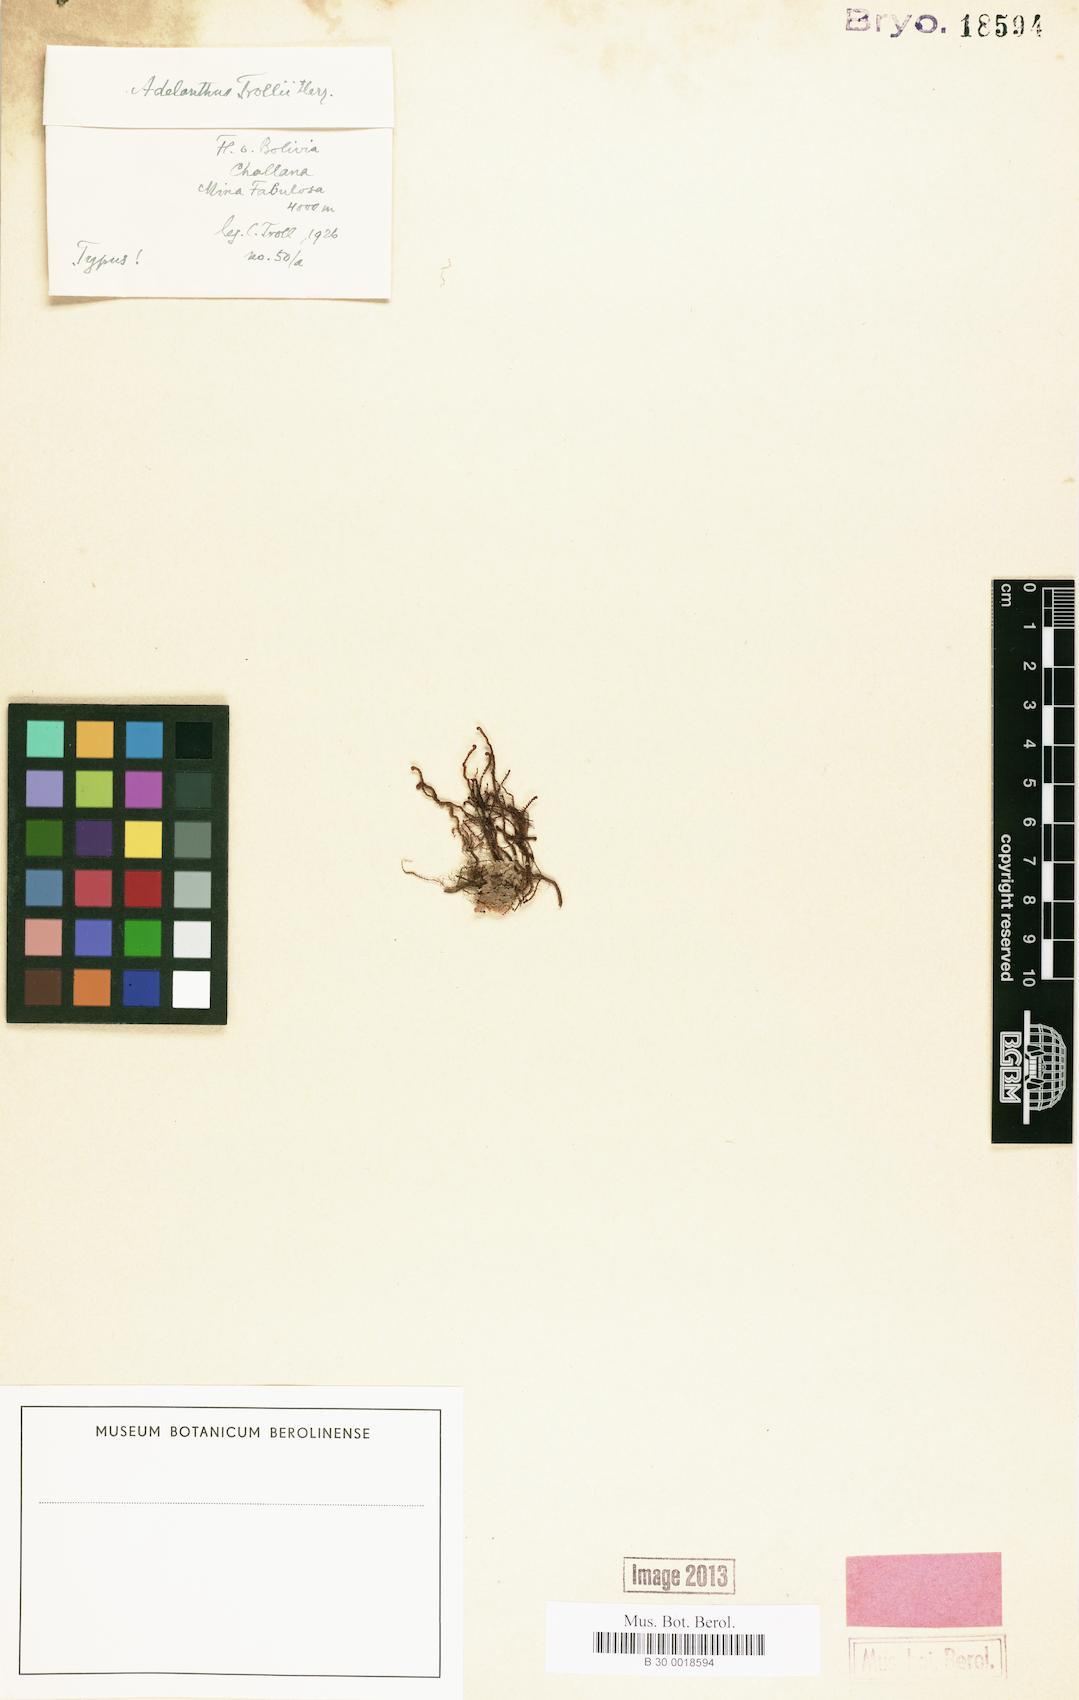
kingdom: Plantae
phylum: Marchantiophyta
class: Jungermanniopsida
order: Jungermanniales
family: Adelanthaceae
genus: Adelanthus
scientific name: Adelanthus lindenbergianus
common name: Lindenberg's leafy liverwort
